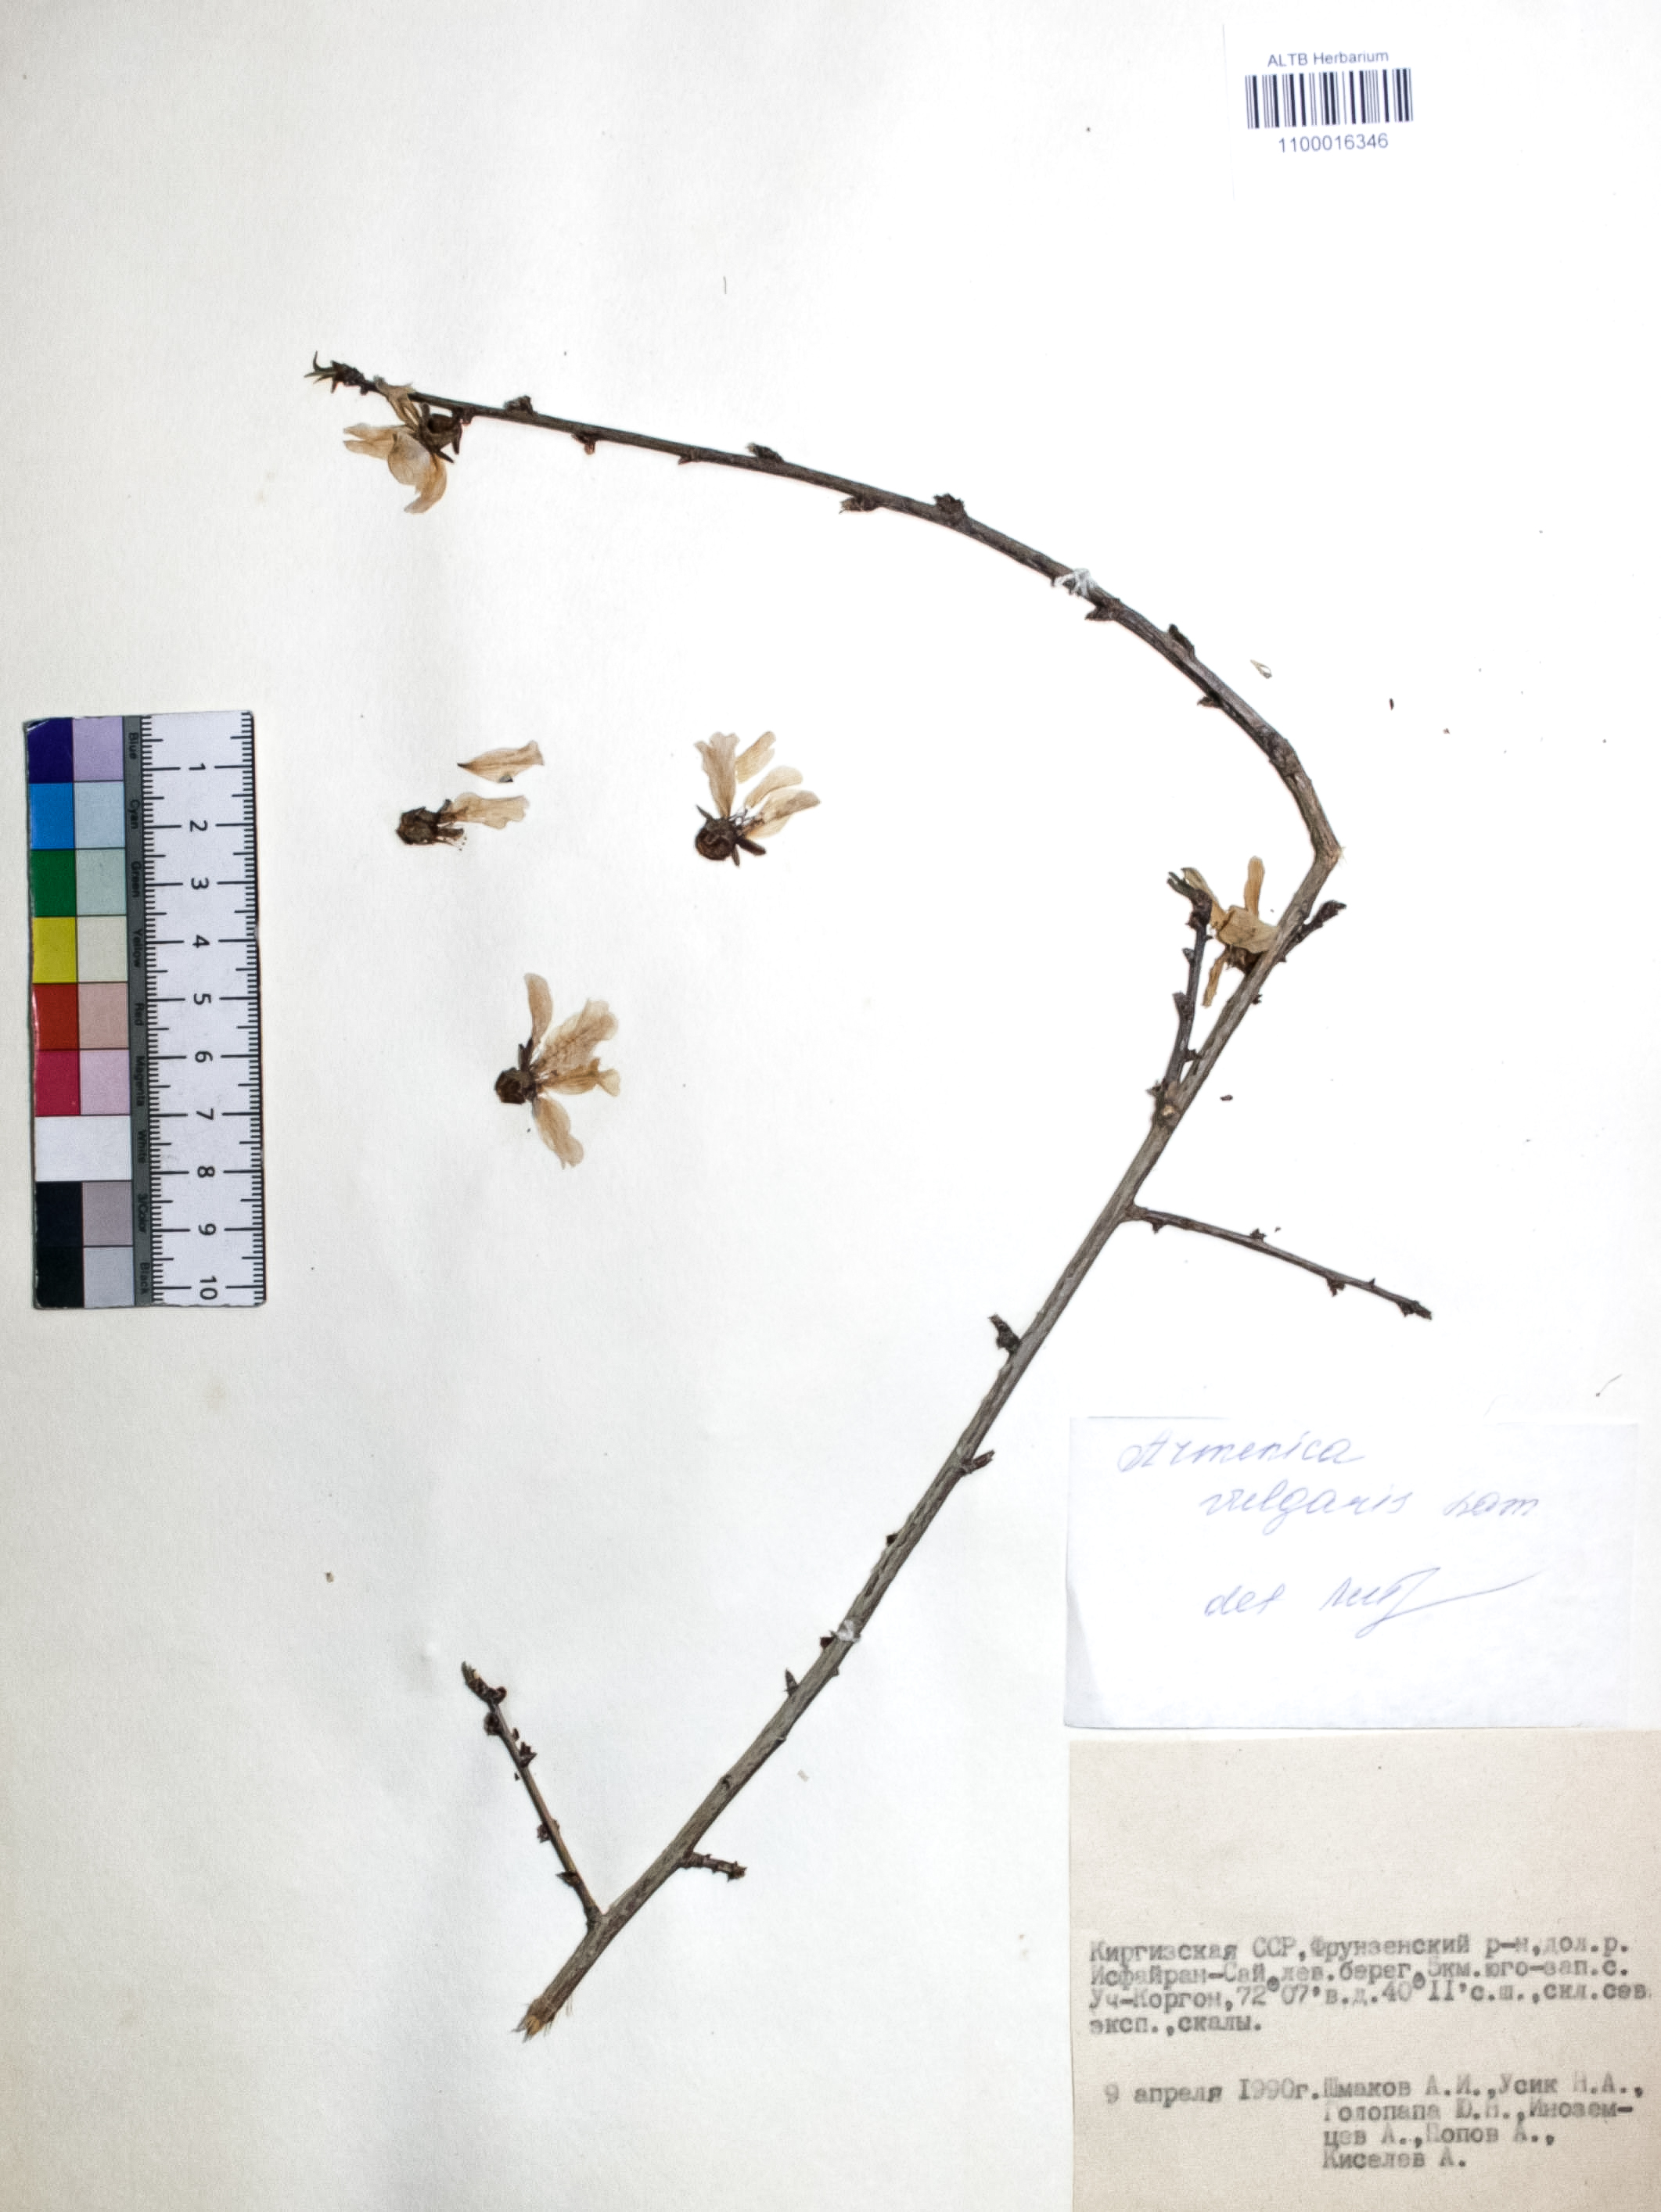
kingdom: Plantae
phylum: Tracheophyta
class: Magnoliopsida
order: Rosales
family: Rosaceae
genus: Prunus
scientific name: Prunus armeniaca
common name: Apricot
